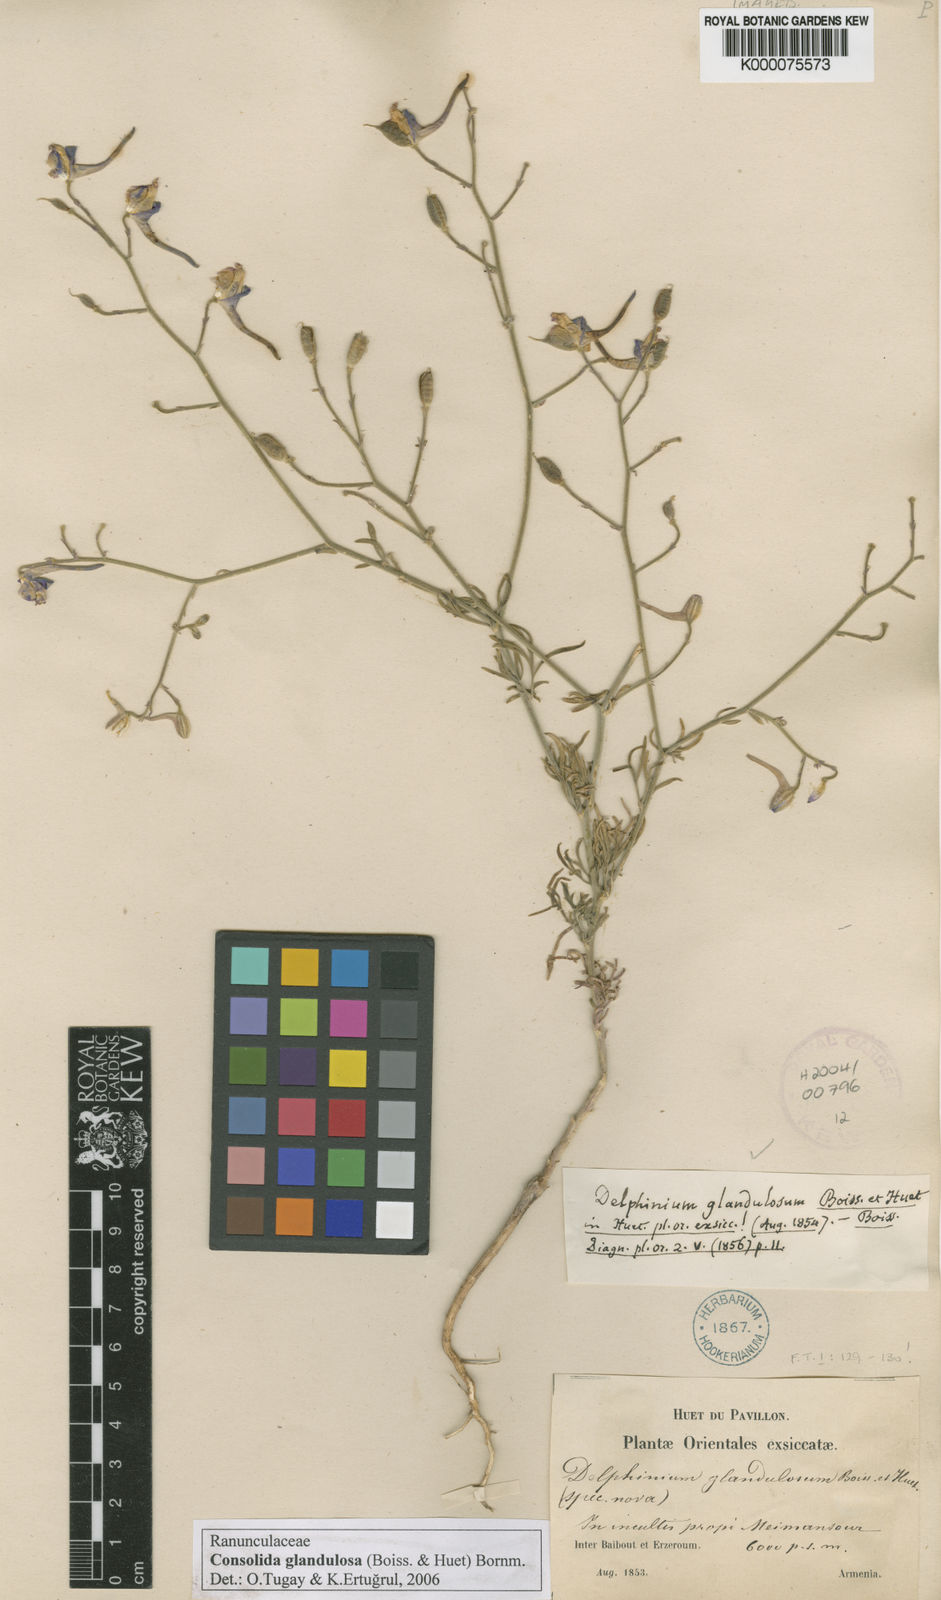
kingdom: Plantae
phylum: Tracheophyta
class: Magnoliopsida
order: Ranunculales
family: Ranunculaceae
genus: Delphinium
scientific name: Delphinium glandulosum
